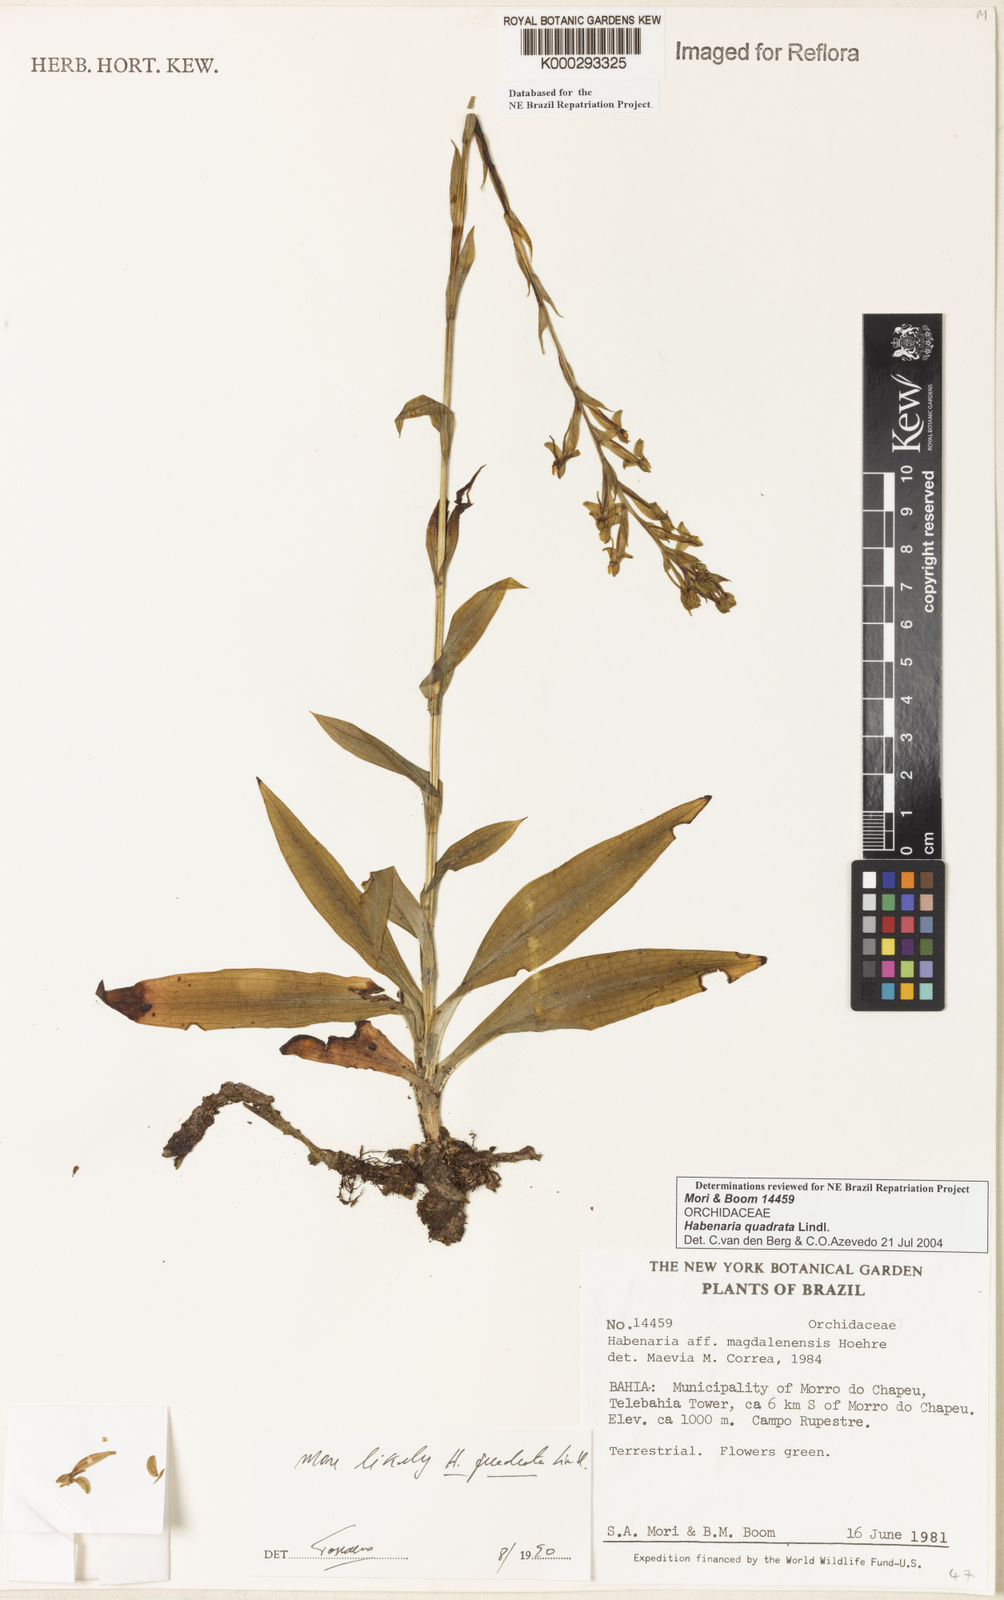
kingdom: Plantae
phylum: Tracheophyta
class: Liliopsida
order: Asparagales
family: Orchidaceae
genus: Habenaria
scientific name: Habenaria quadrata
